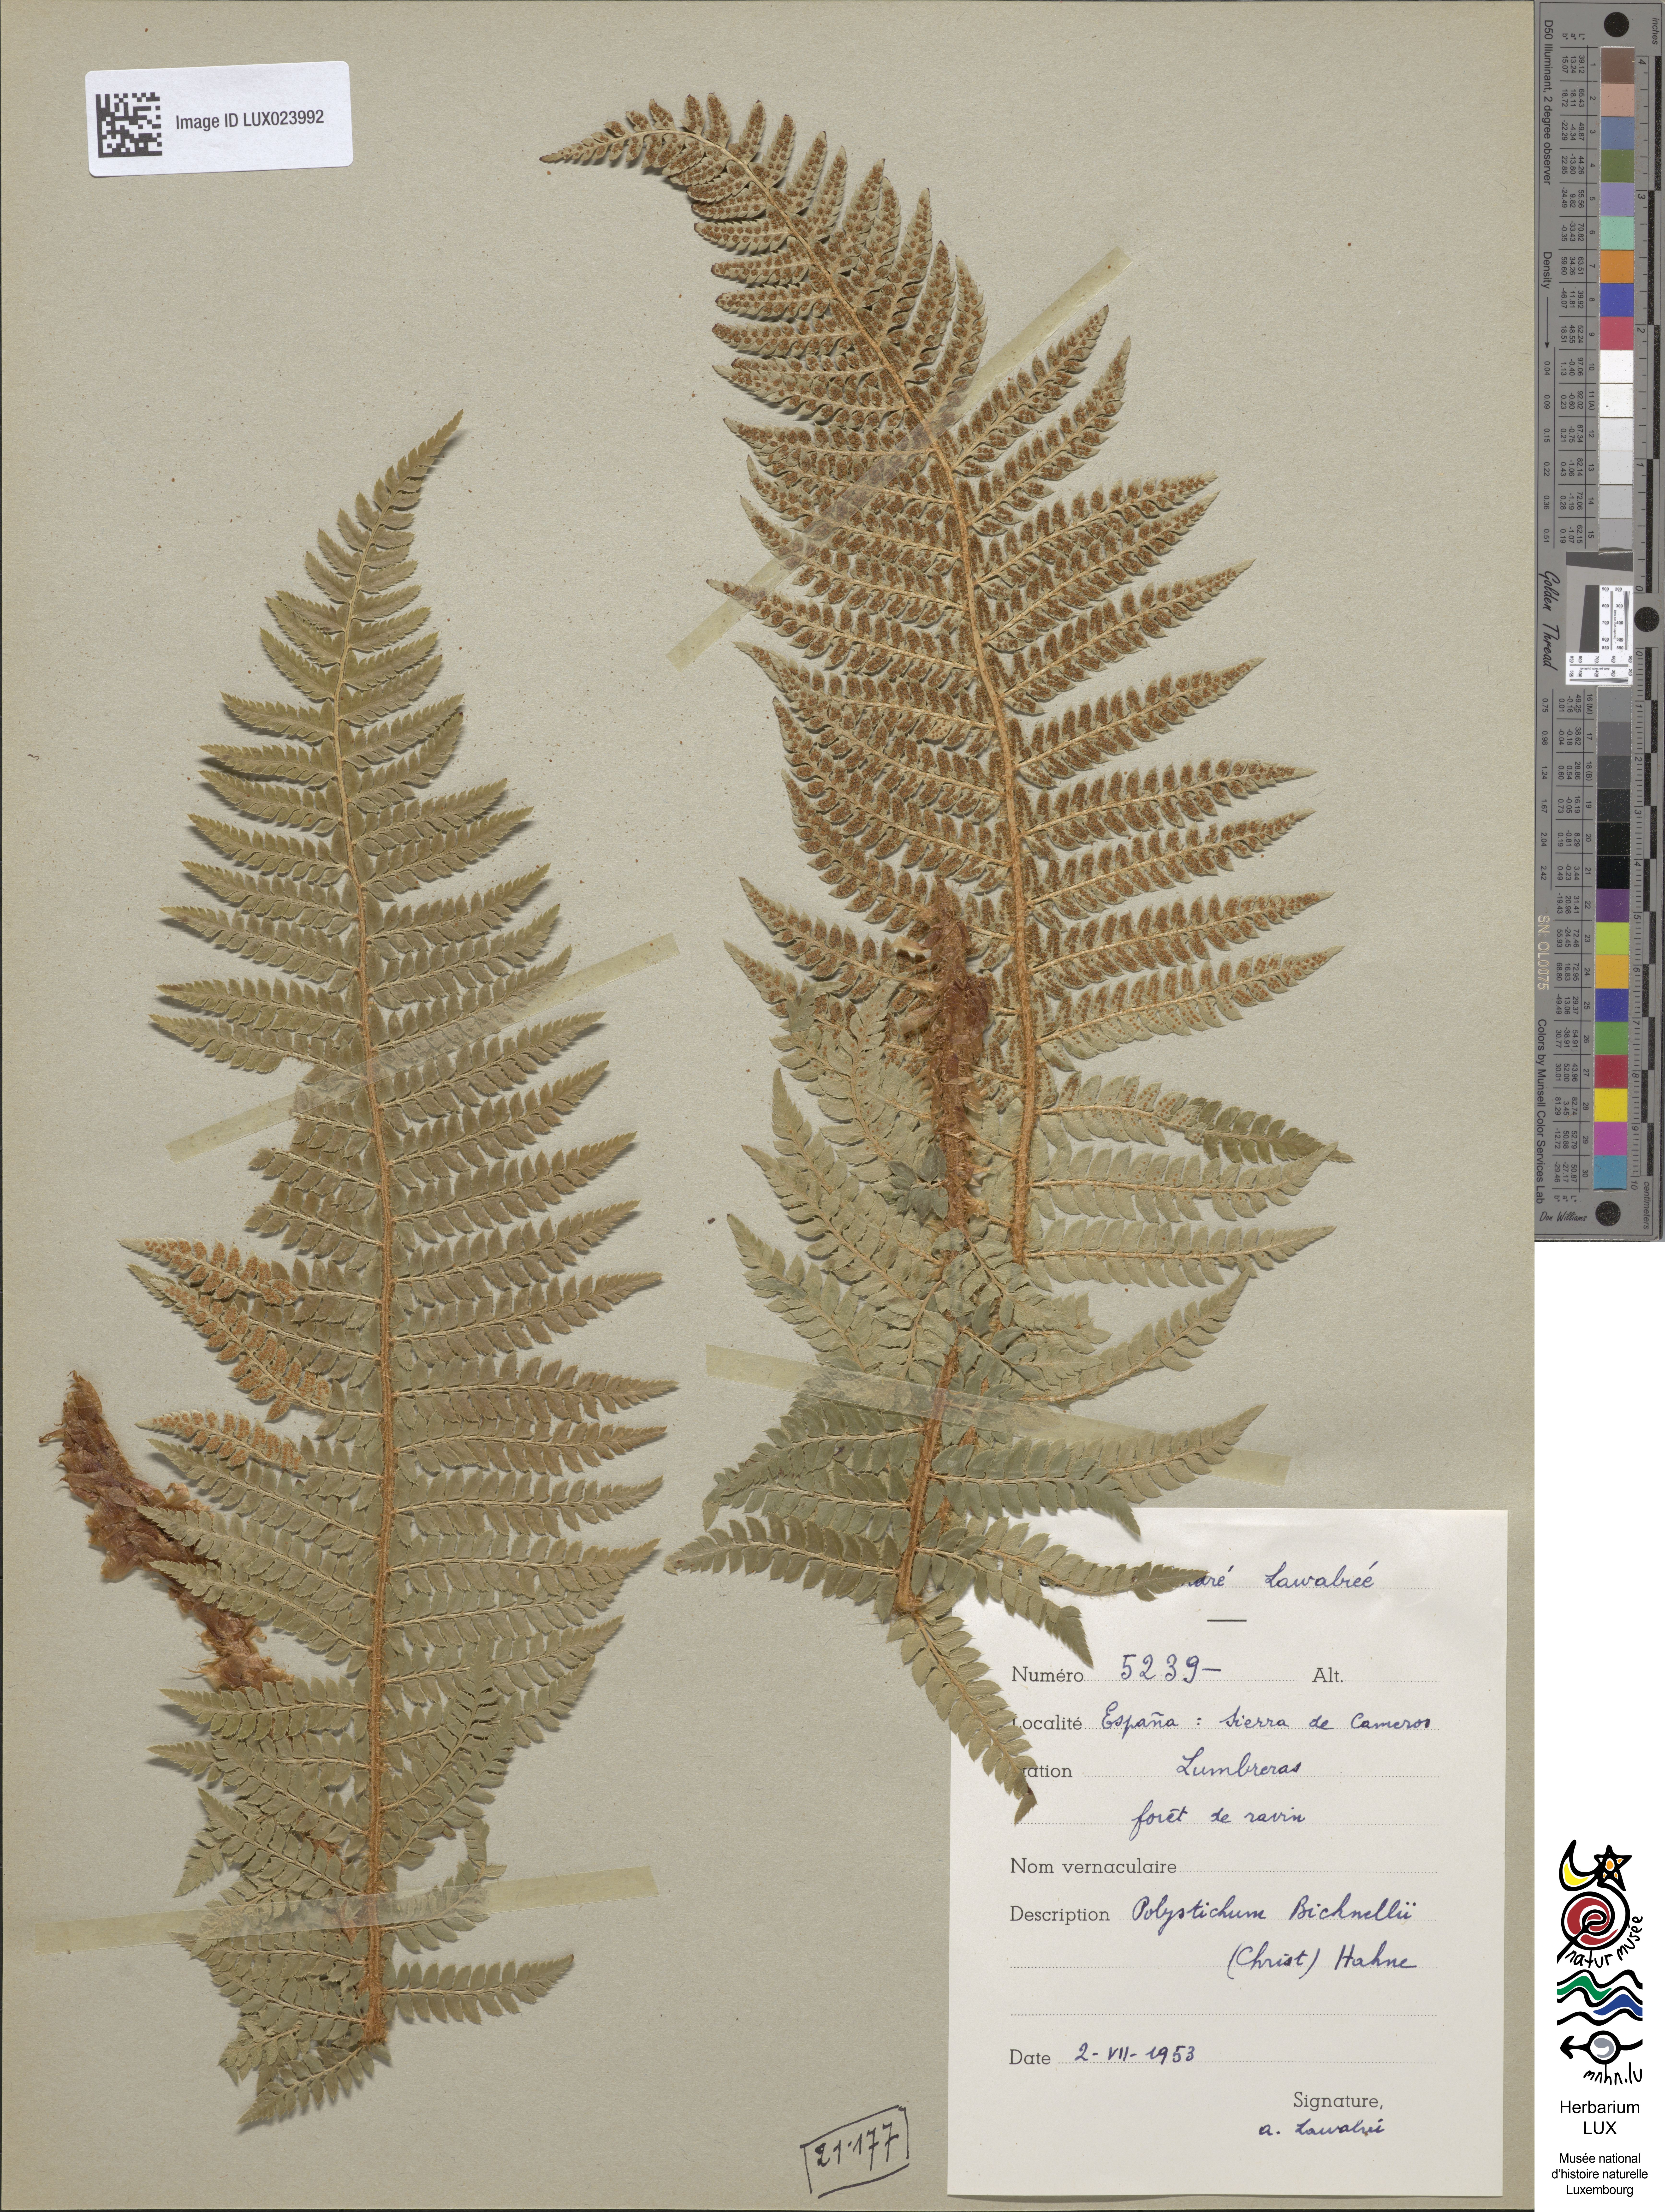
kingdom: Plantae
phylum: Tracheophyta
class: Polypodiopsida
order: Polypodiales
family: Dryopteridaceae
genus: Polystichum
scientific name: Polystichum
